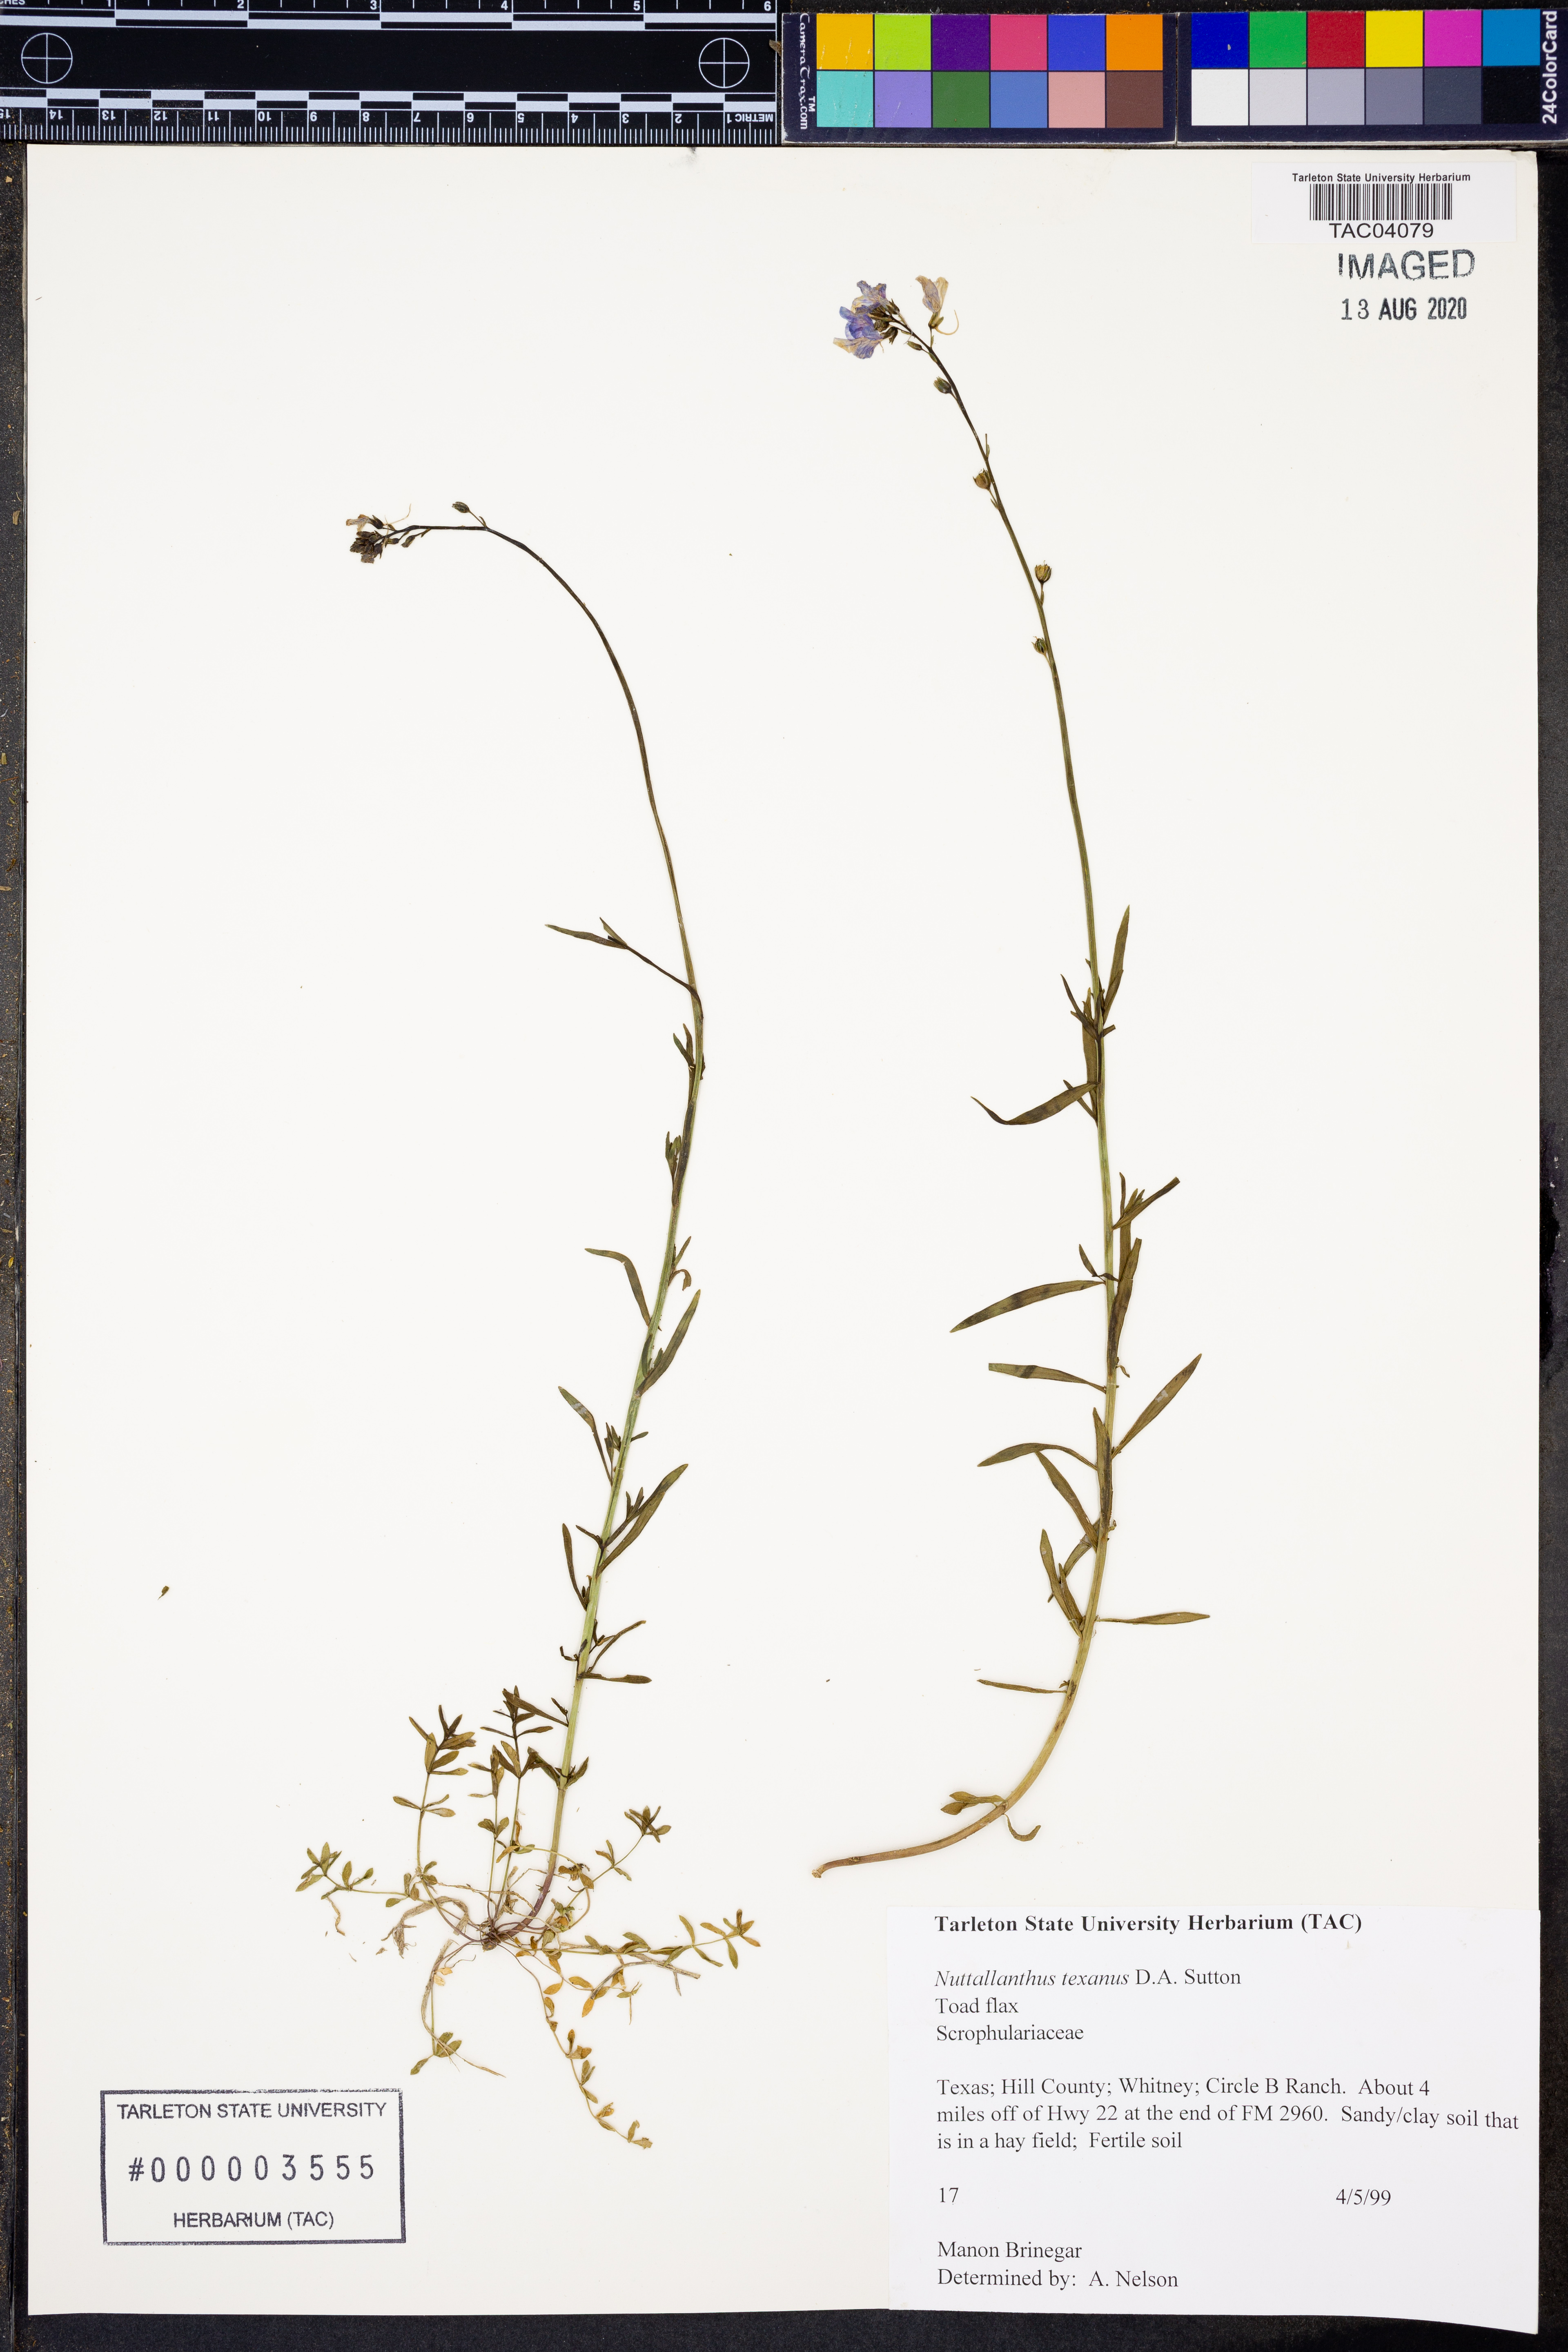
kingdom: Plantae
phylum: Tracheophyta
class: Magnoliopsida
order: Lamiales
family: Plantaginaceae
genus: Nuttallanthus
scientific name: Nuttallanthus texanus
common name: Texas toadflax
